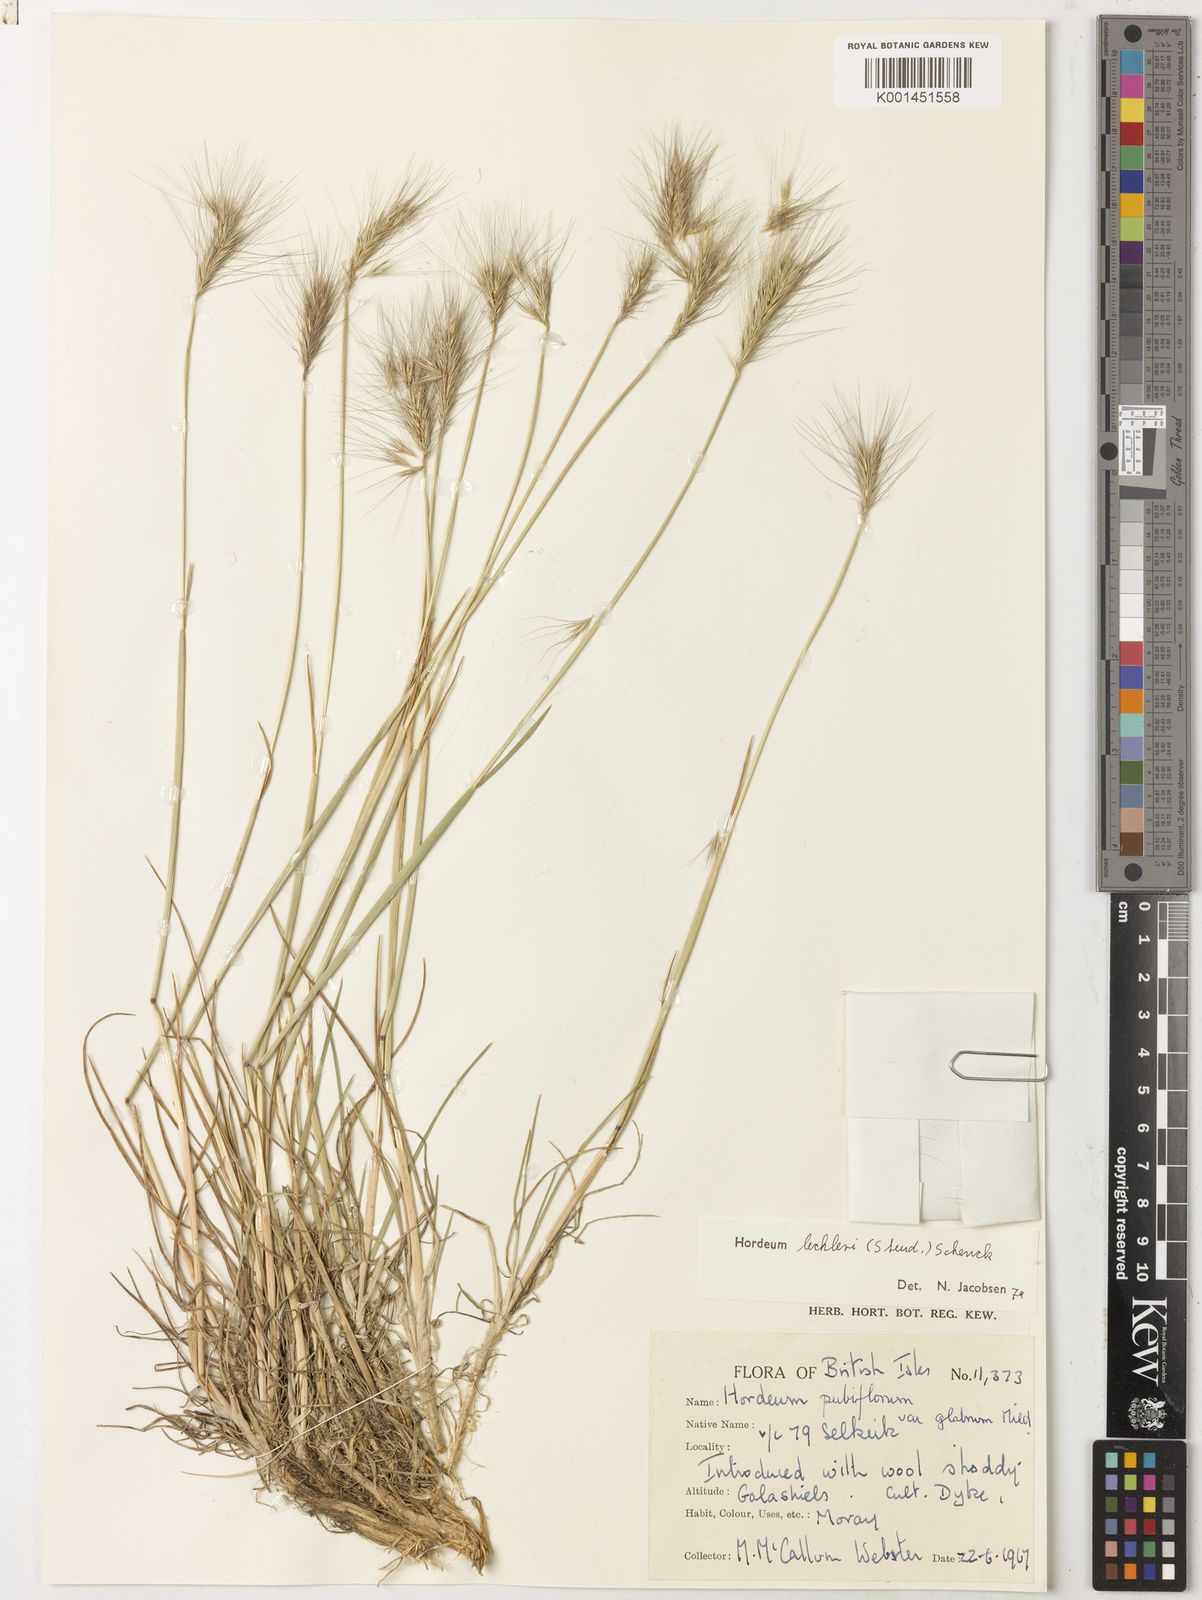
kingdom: Plantae
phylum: Tracheophyta
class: Liliopsida
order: Poales
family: Poaceae
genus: Hordeum
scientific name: Hordeum lechleri
